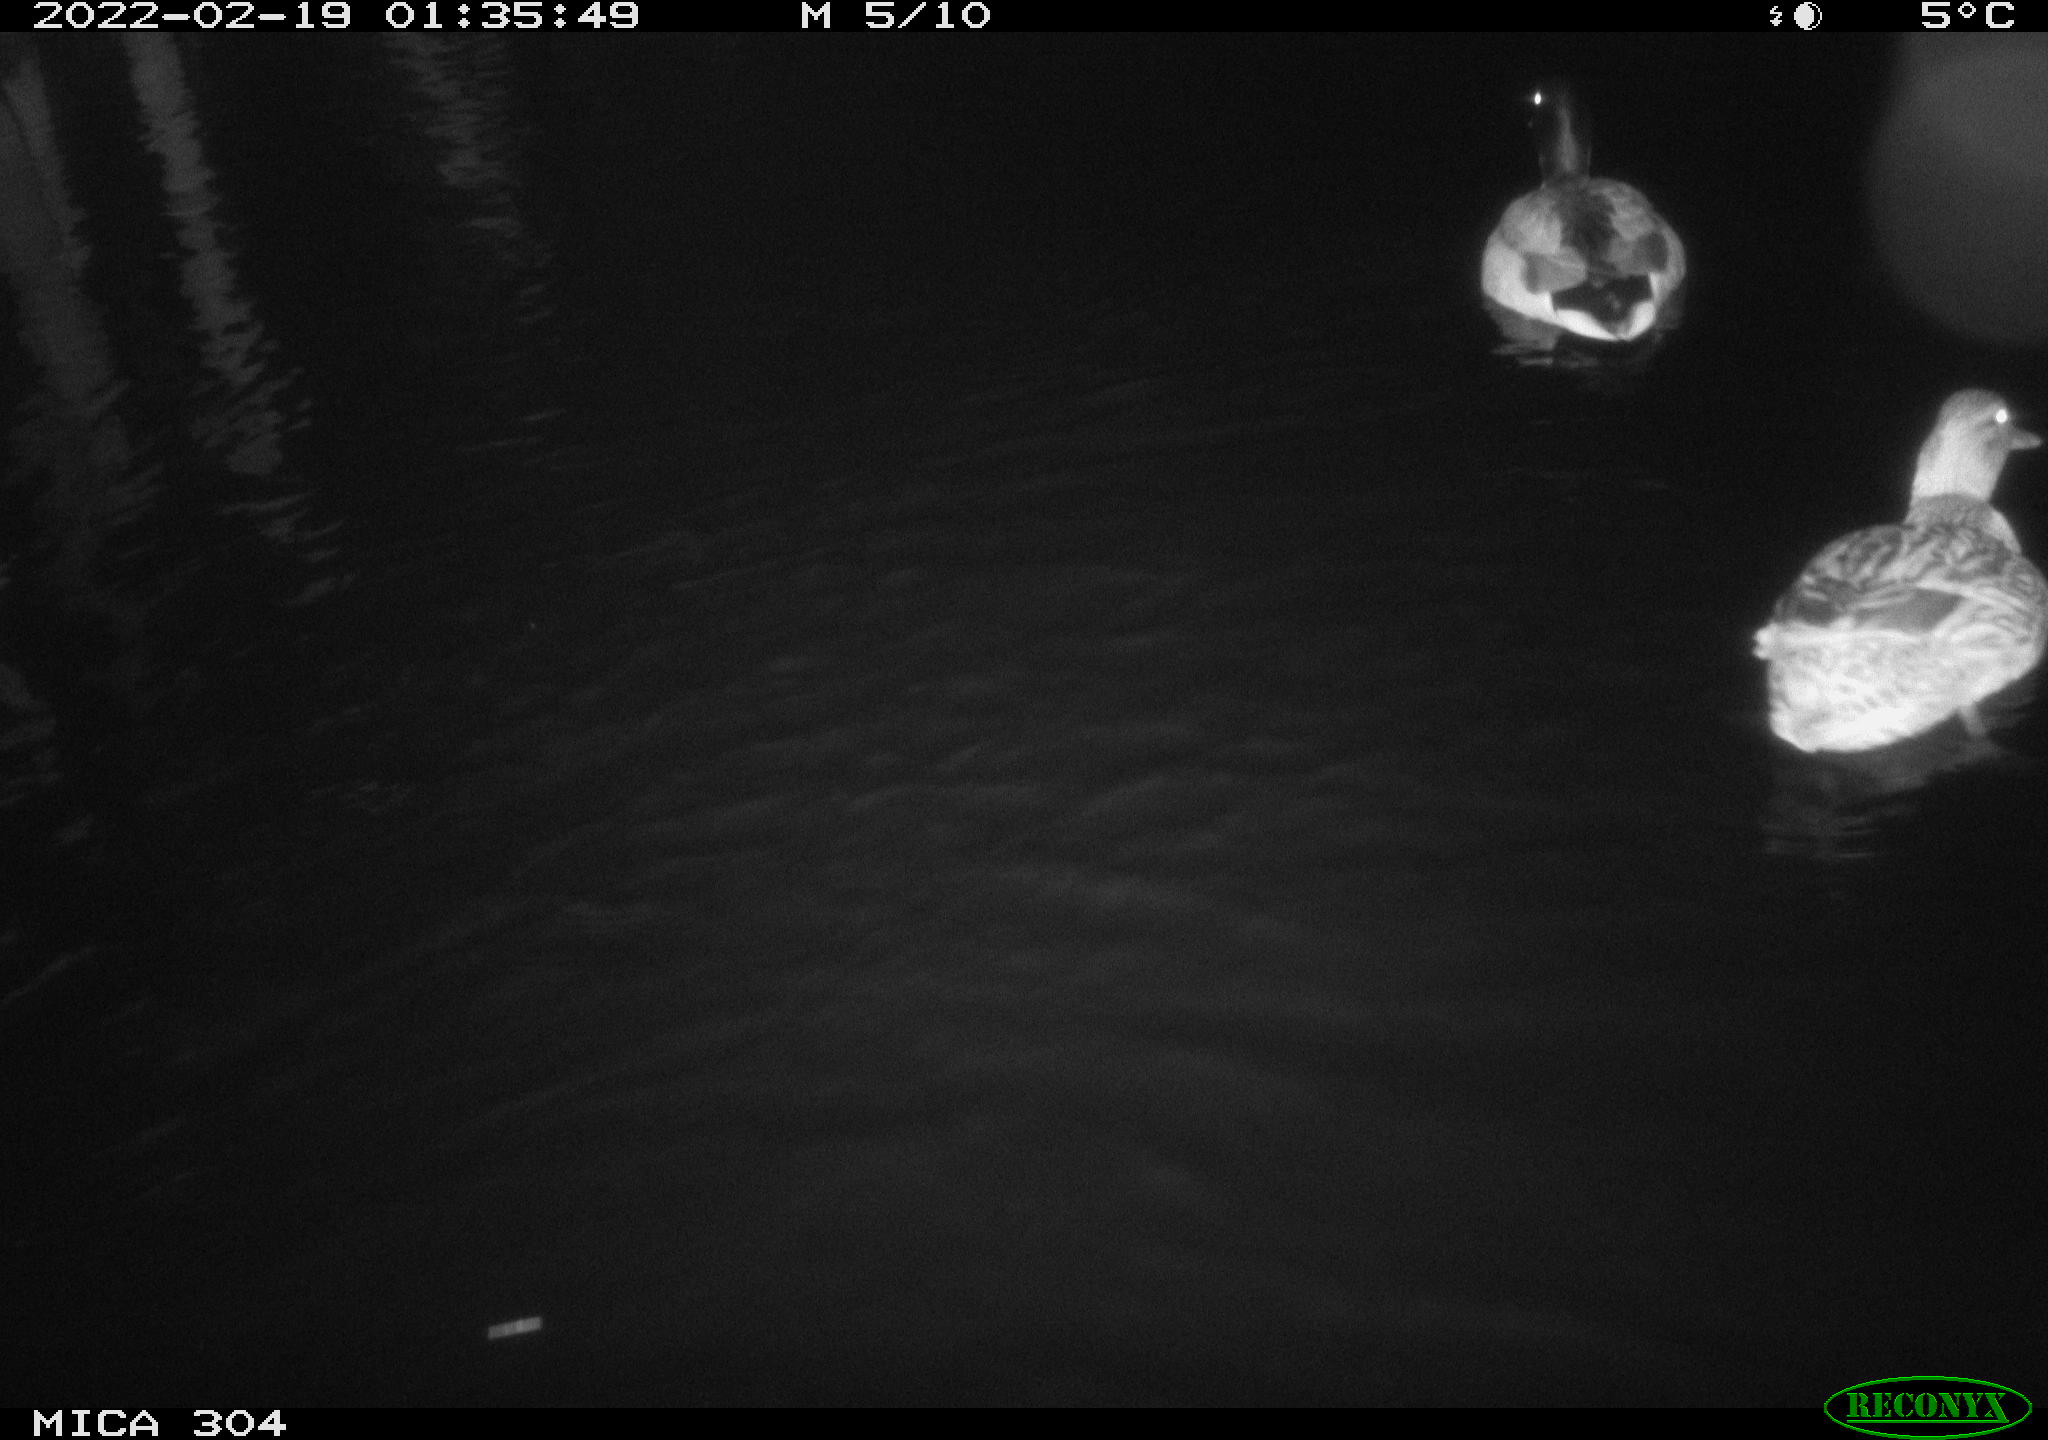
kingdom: Animalia
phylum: Chordata
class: Aves
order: Anseriformes
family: Anatidae
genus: Anas
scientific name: Anas platyrhynchos
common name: Mallard
